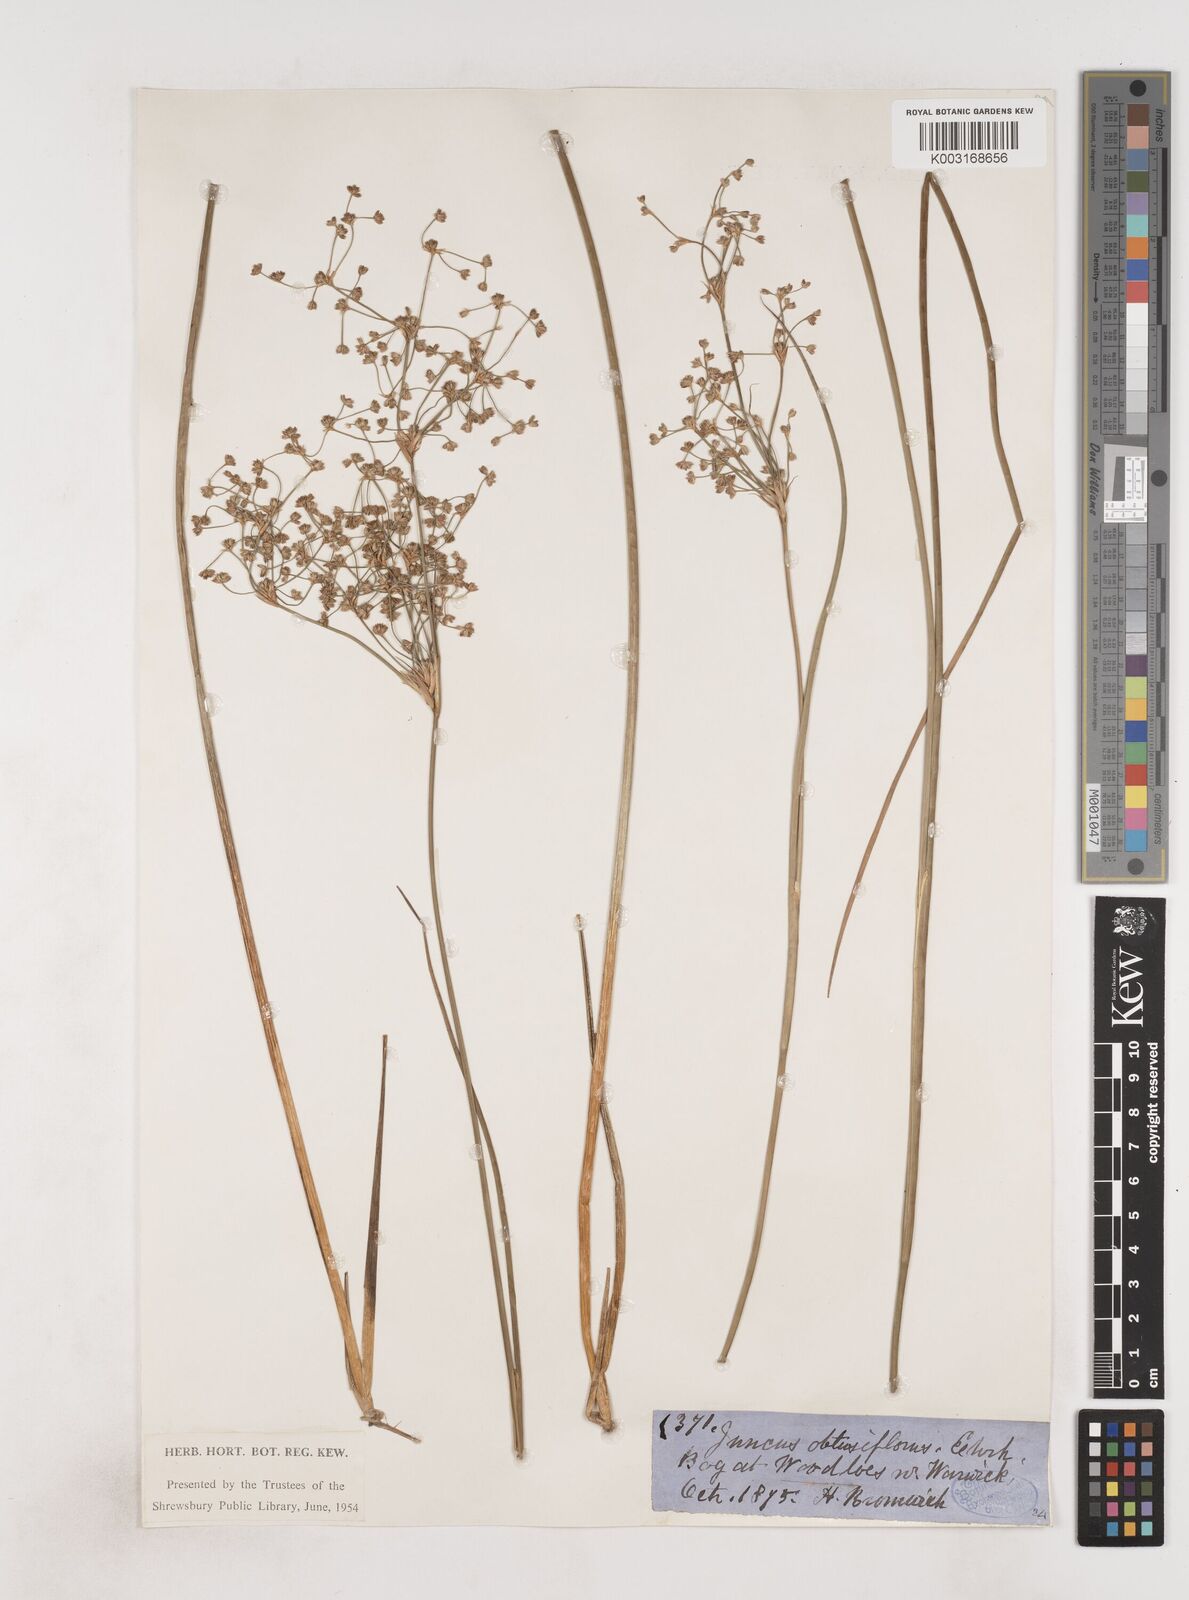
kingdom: Plantae
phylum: Tracheophyta
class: Liliopsida
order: Poales
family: Juncaceae
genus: Juncus
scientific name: Juncus subnodulosus
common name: Blunt-flowered rush
